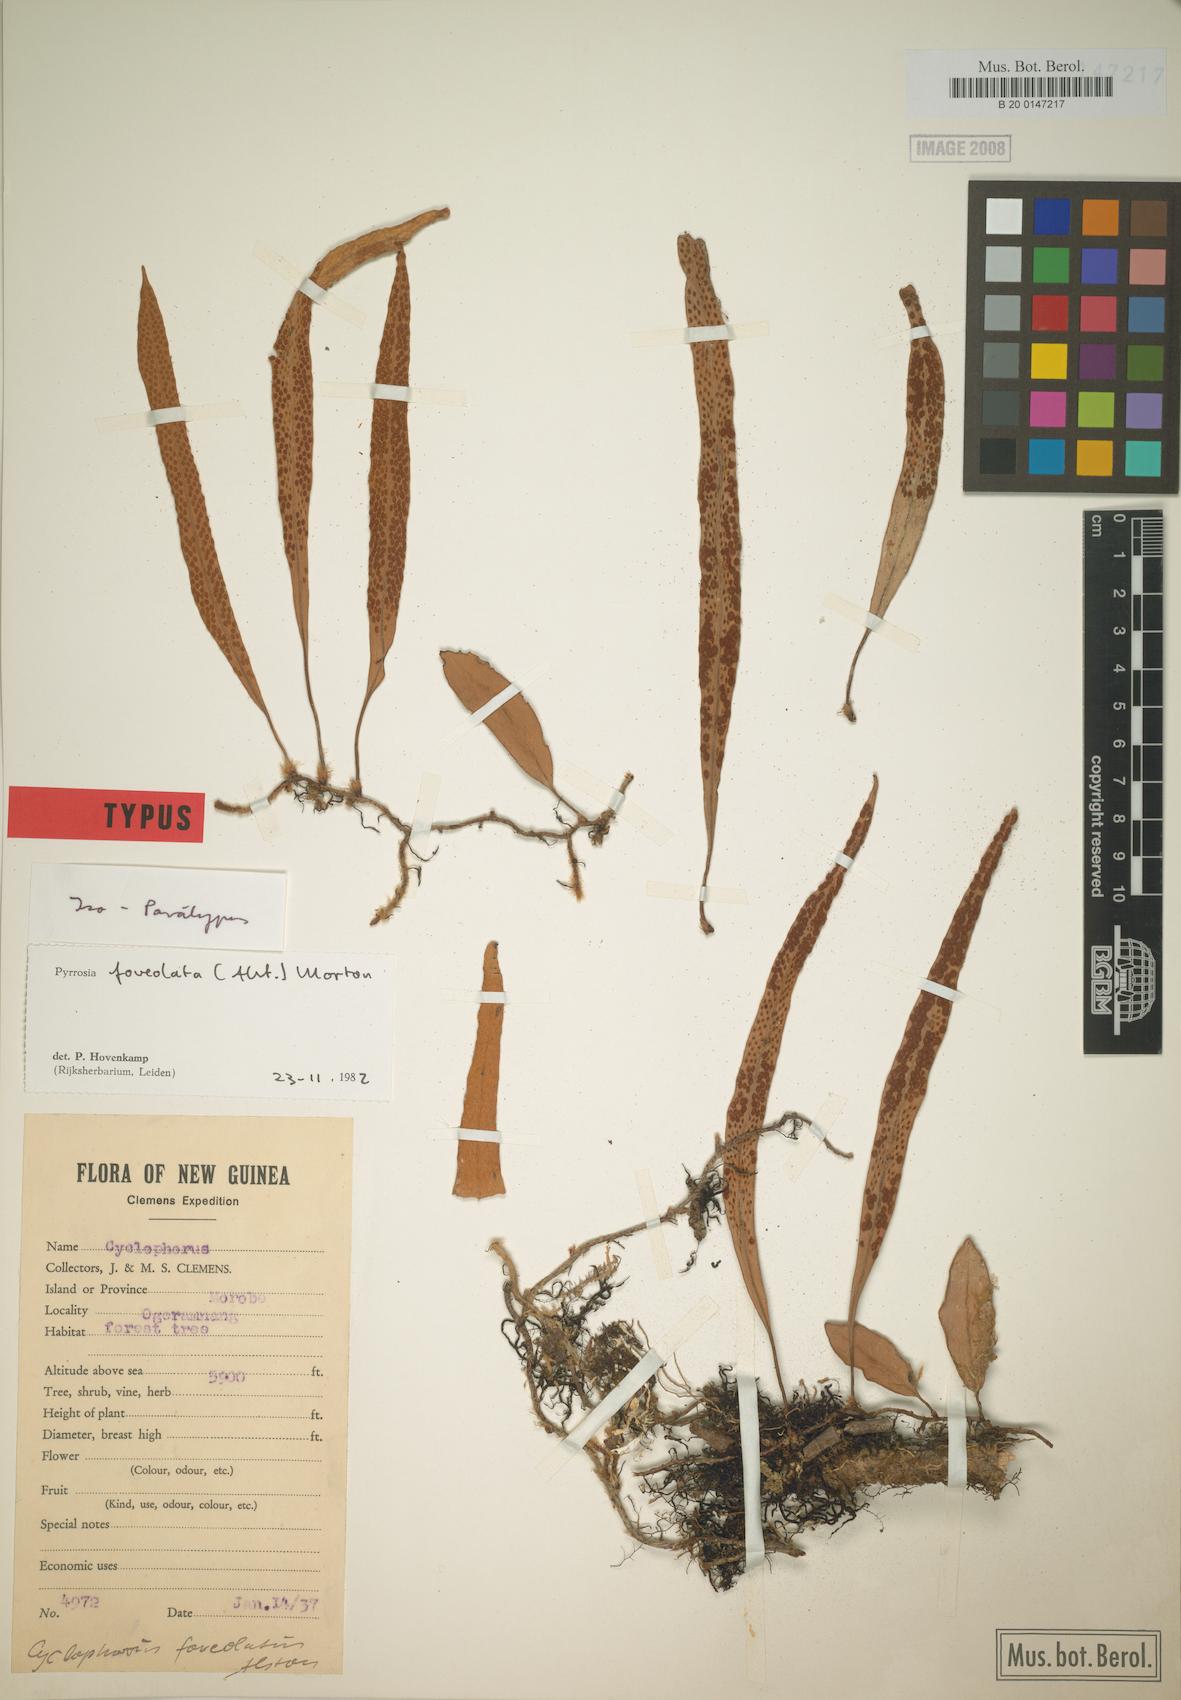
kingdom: Plantae
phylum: Tracheophyta
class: Polypodiopsida
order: Polypodiales
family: Polypodiaceae
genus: Pyrrosia
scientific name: Pyrrosia foveolata
